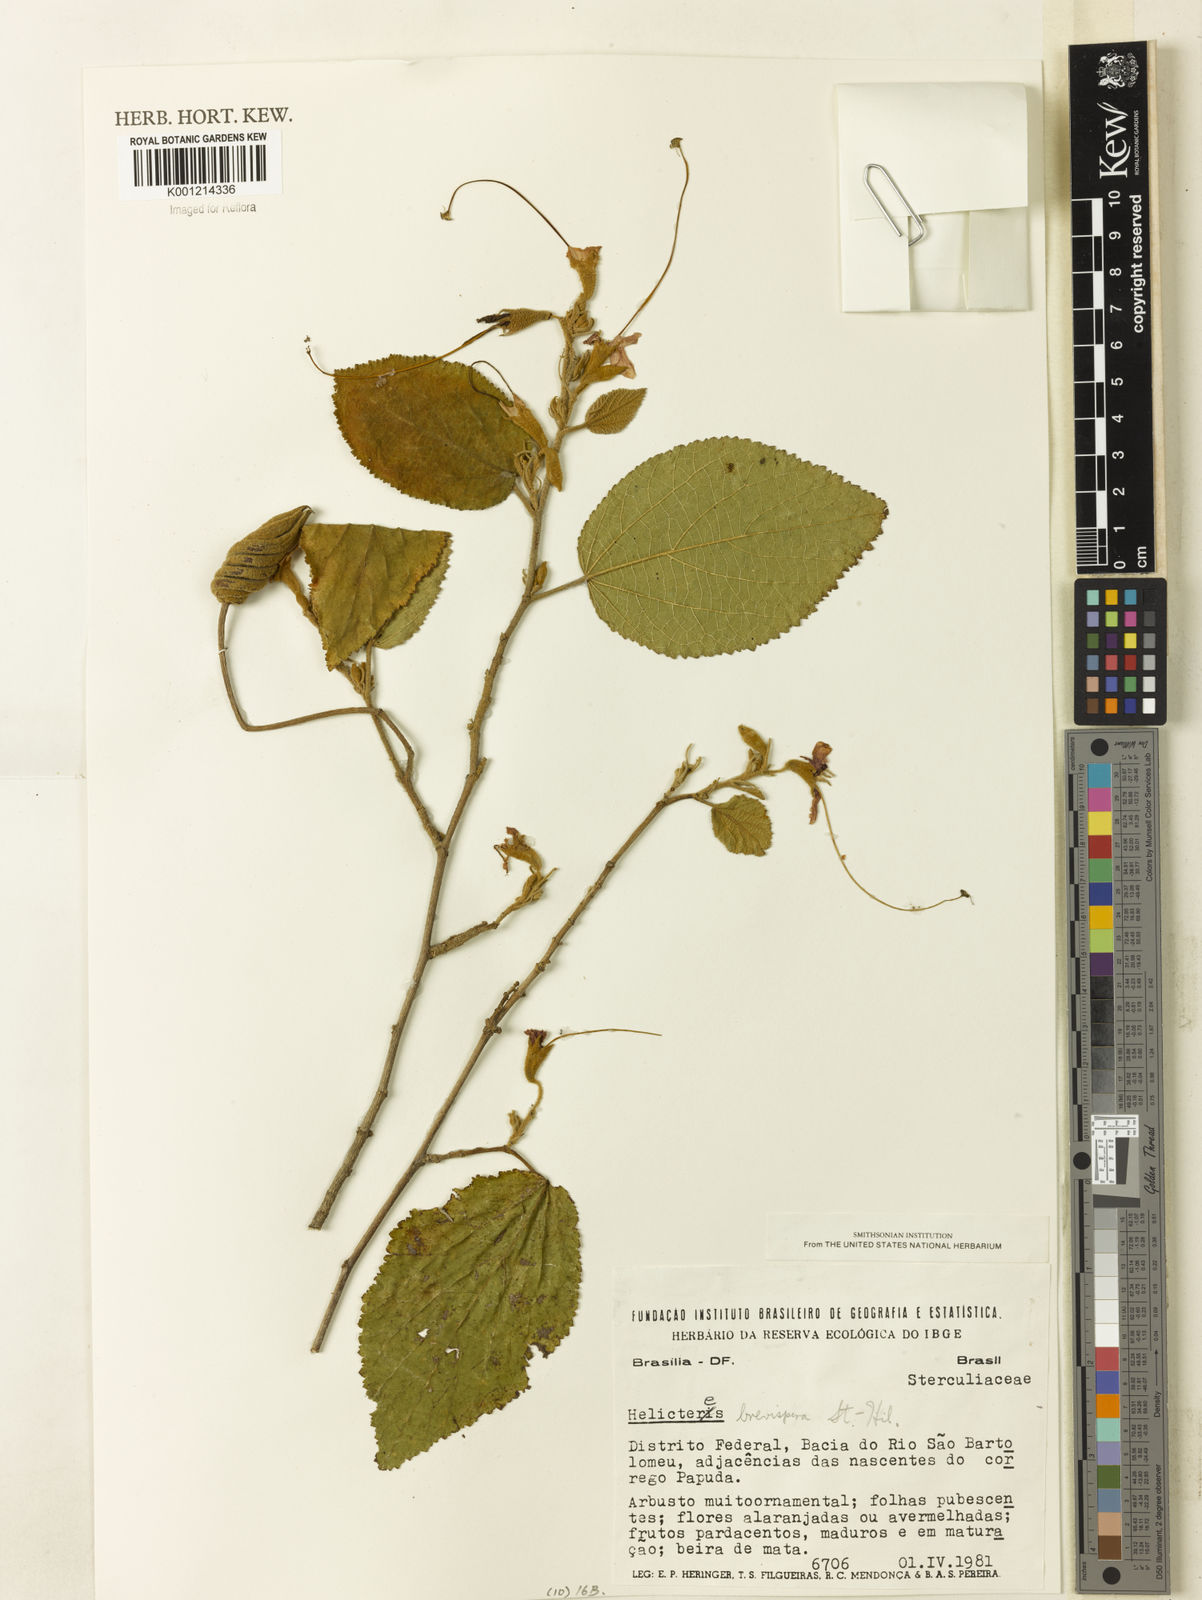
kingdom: Plantae
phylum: Tracheophyta
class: Magnoliopsida
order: Malvales
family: Malvaceae
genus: Helicteres
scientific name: Helicteres
